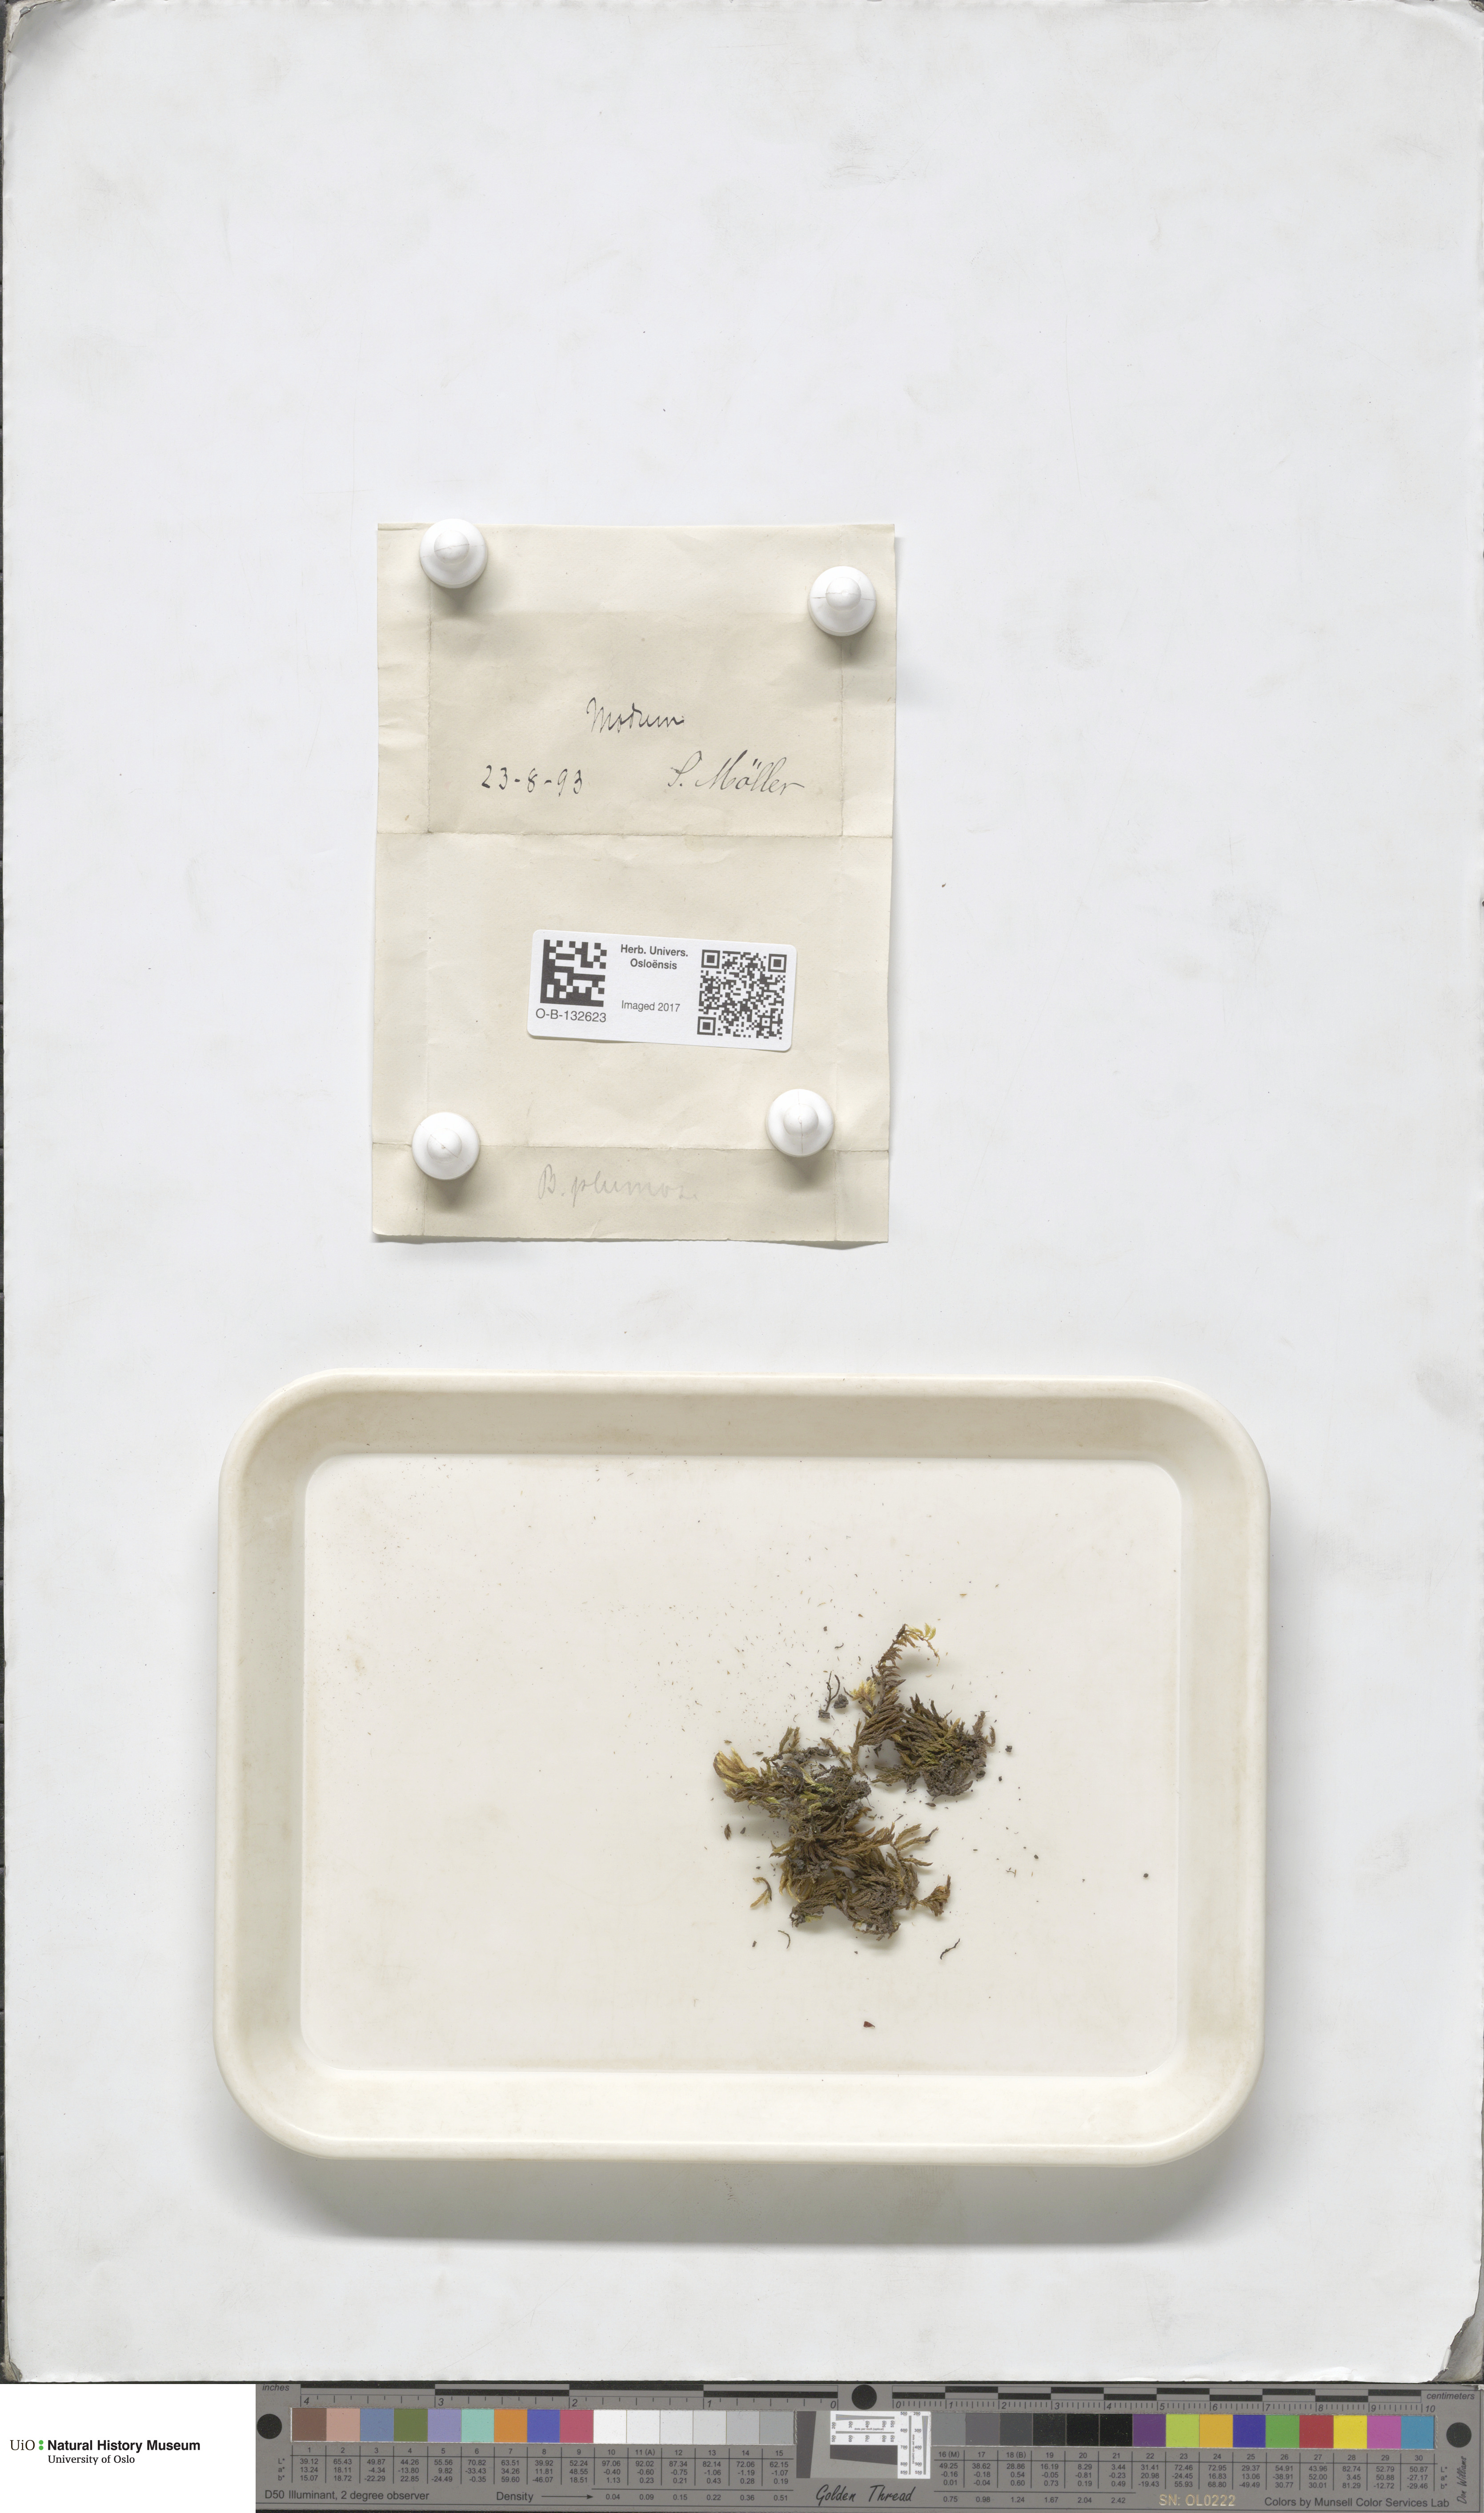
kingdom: Plantae
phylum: Bryophyta
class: Bryopsida
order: Hypnales
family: Brachytheciaceae
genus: Sciuro-hypnum
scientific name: Sciuro-hypnum plumosum
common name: Rusty feather-moss
